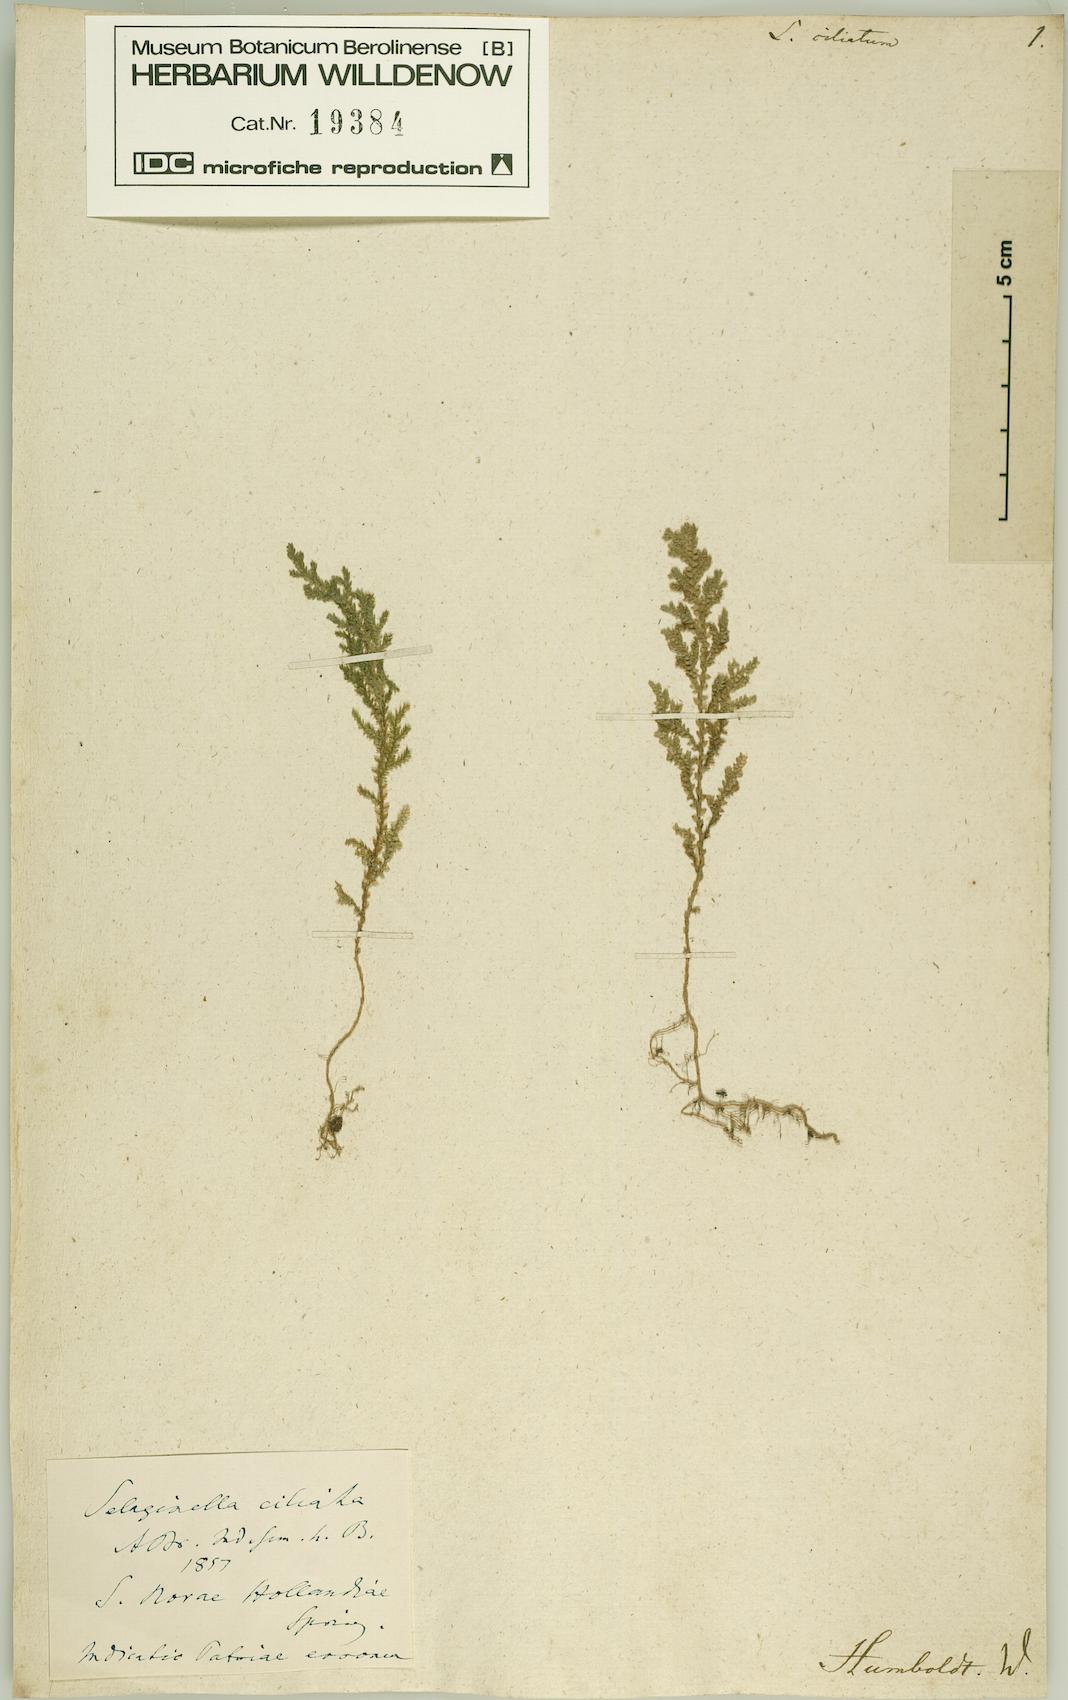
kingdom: Plantae
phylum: Tracheophyta
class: Lycopodiopsida
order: Selaginellales
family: Selaginellaceae
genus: Selaginella
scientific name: Selaginella novae-hollandiae
